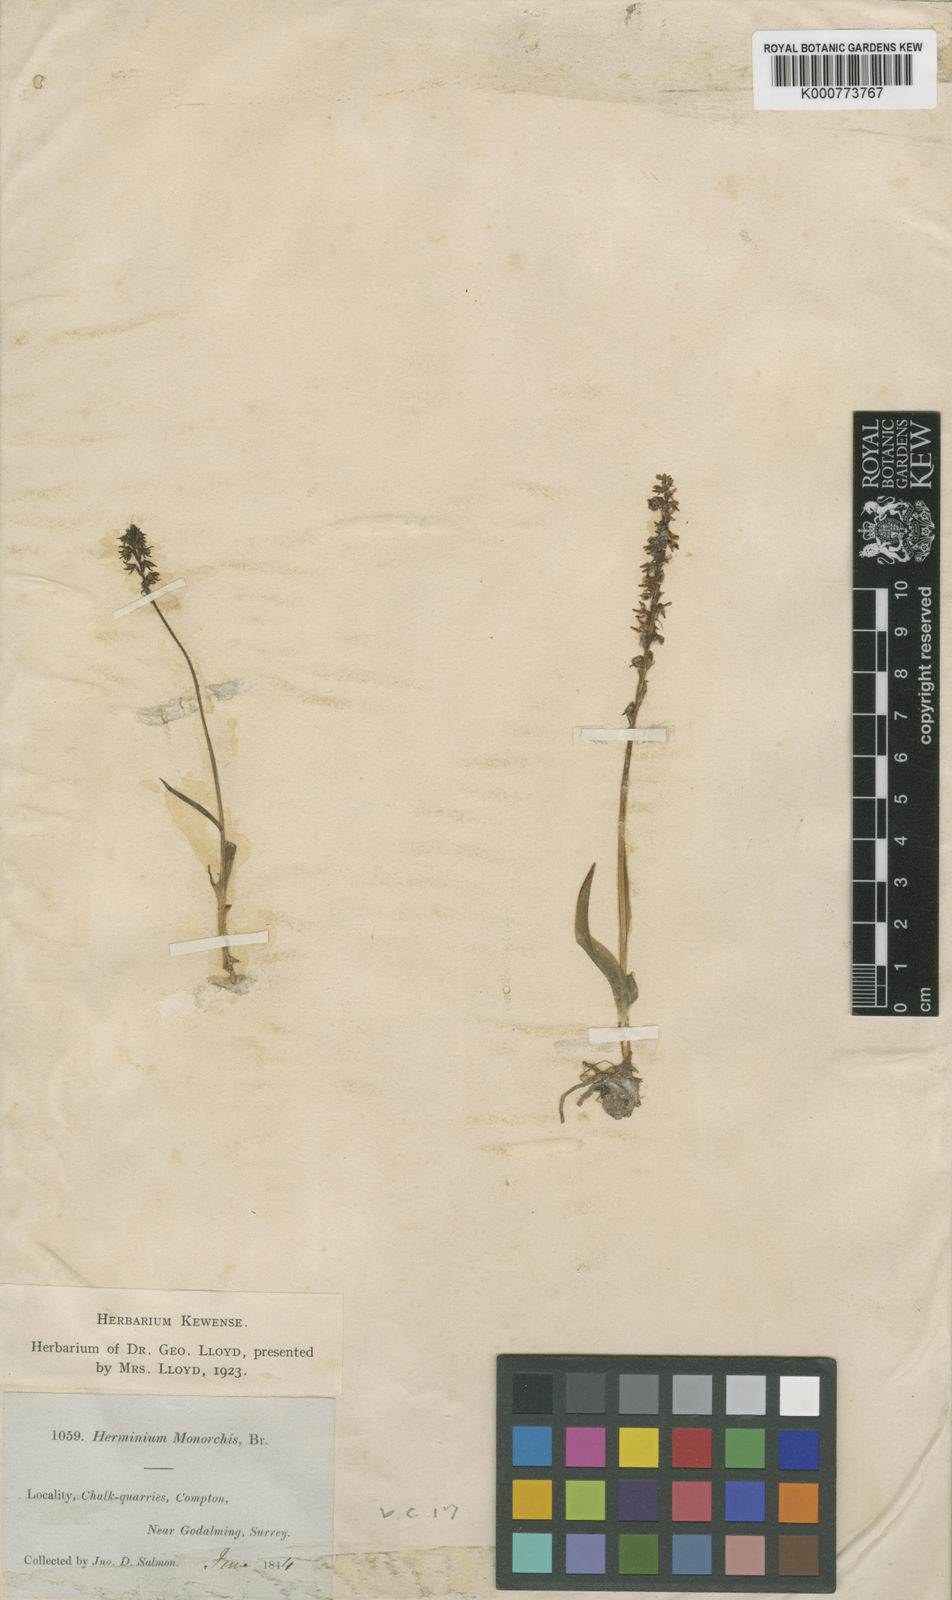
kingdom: Plantae
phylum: Tracheophyta
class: Liliopsida
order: Asparagales
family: Orchidaceae
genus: Herminium
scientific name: Herminium monorchis
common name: Musk orchid
